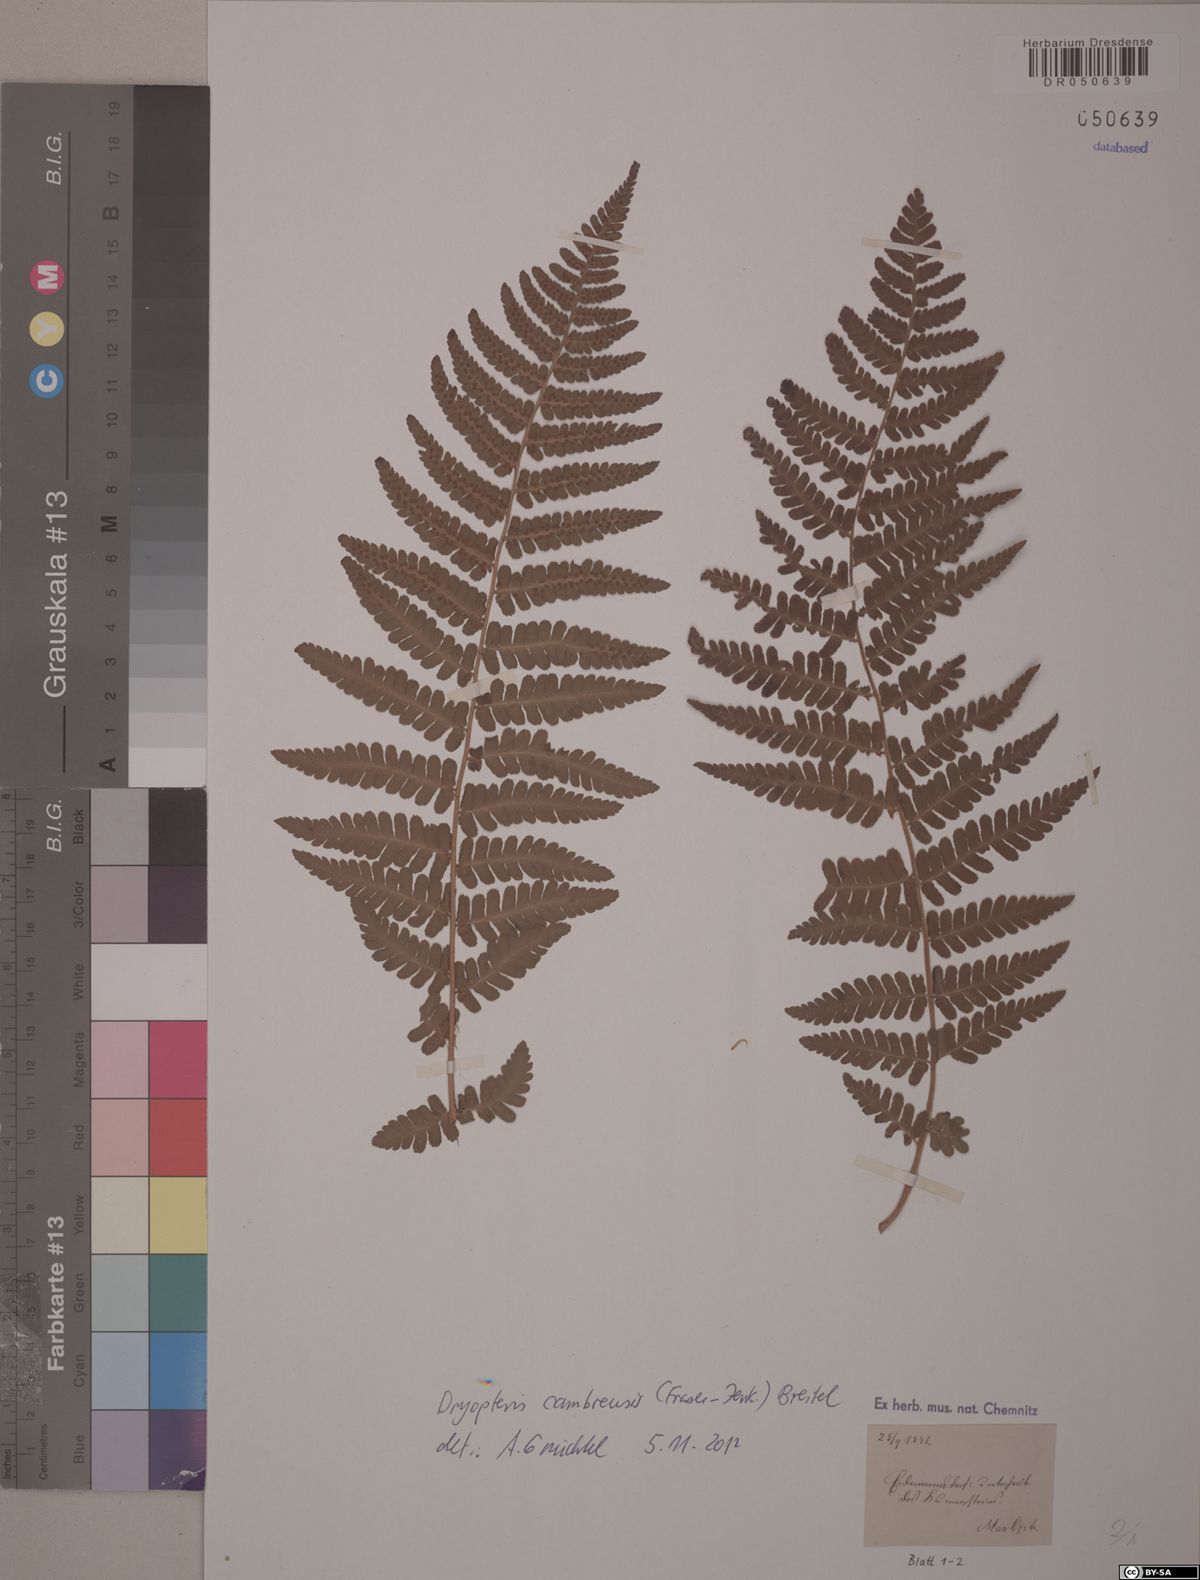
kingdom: Plantae
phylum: Tracheophyta
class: Polypodiopsida
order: Polypodiales
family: Dryopteridaceae
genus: Dryopteris
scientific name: Dryopteris cambrensis
